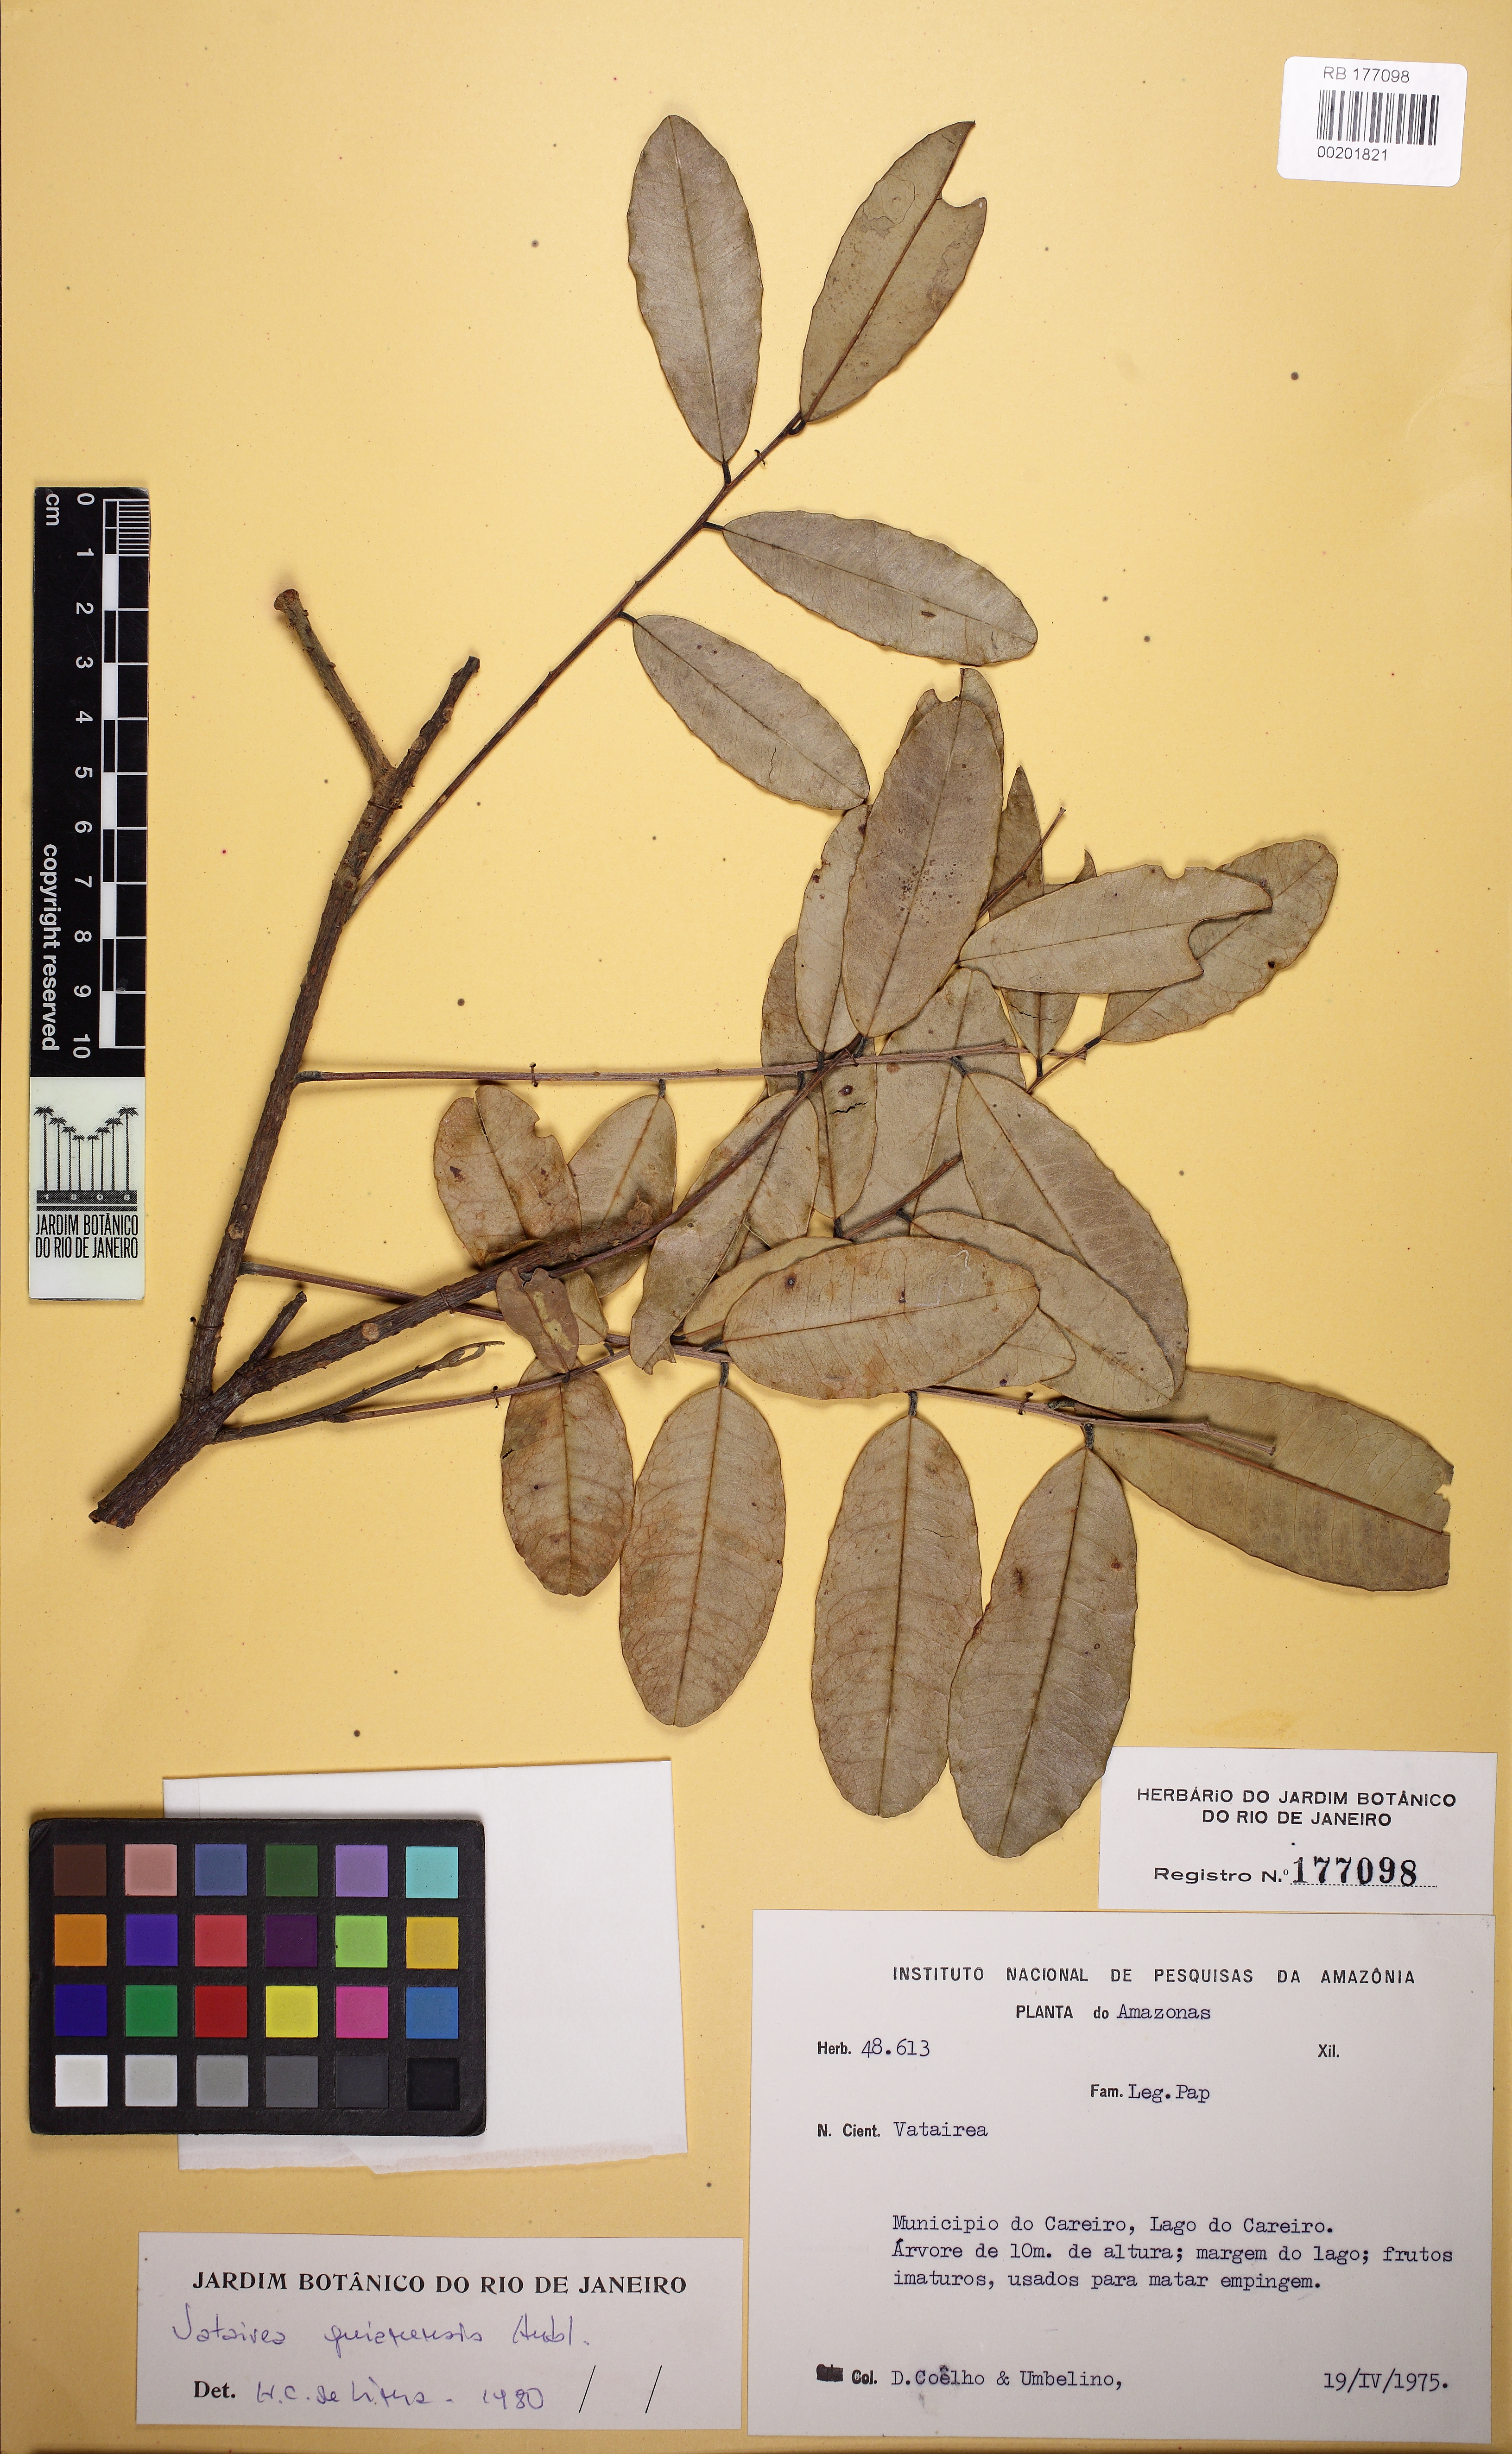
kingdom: Plantae
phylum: Tracheophyta
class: Magnoliopsida
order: Fabales
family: Fabaceae
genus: Vatairea
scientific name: Vatairea guianensis
